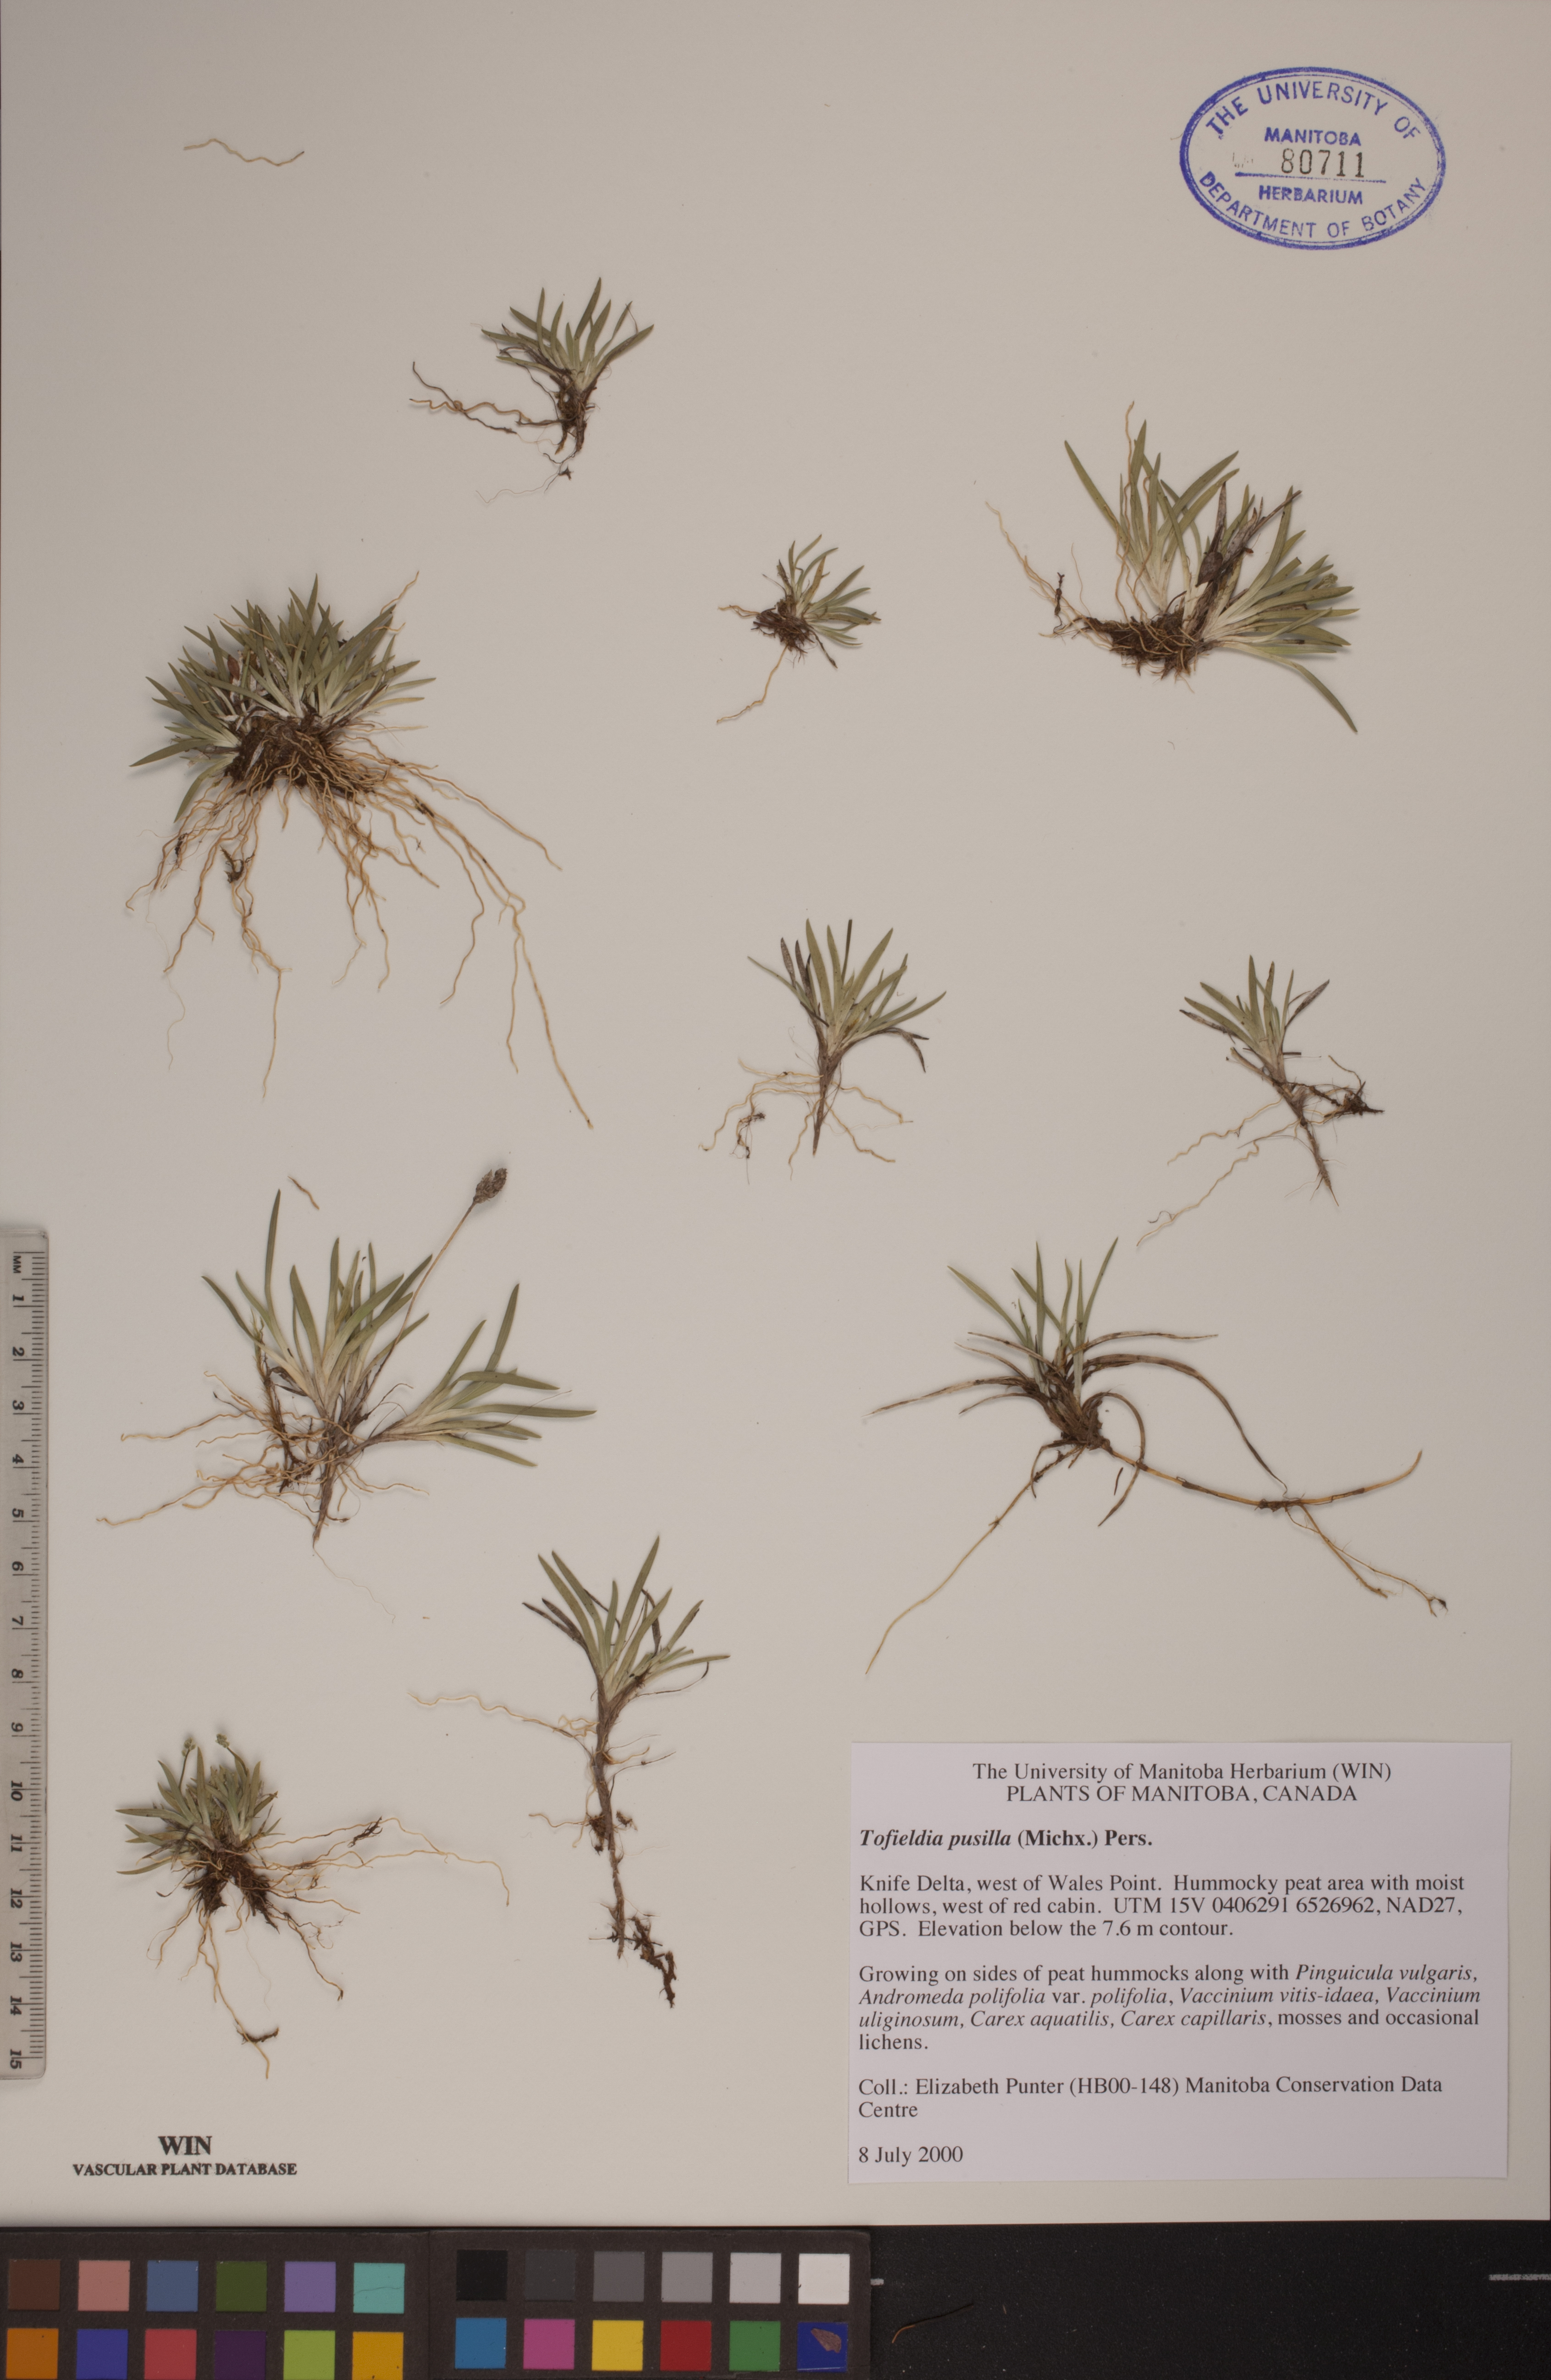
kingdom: Plantae
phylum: Tracheophyta
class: Liliopsida
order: Alismatales
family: Tofieldiaceae
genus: Tofieldia
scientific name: Tofieldia pusilla
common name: Scottish false asphodel
